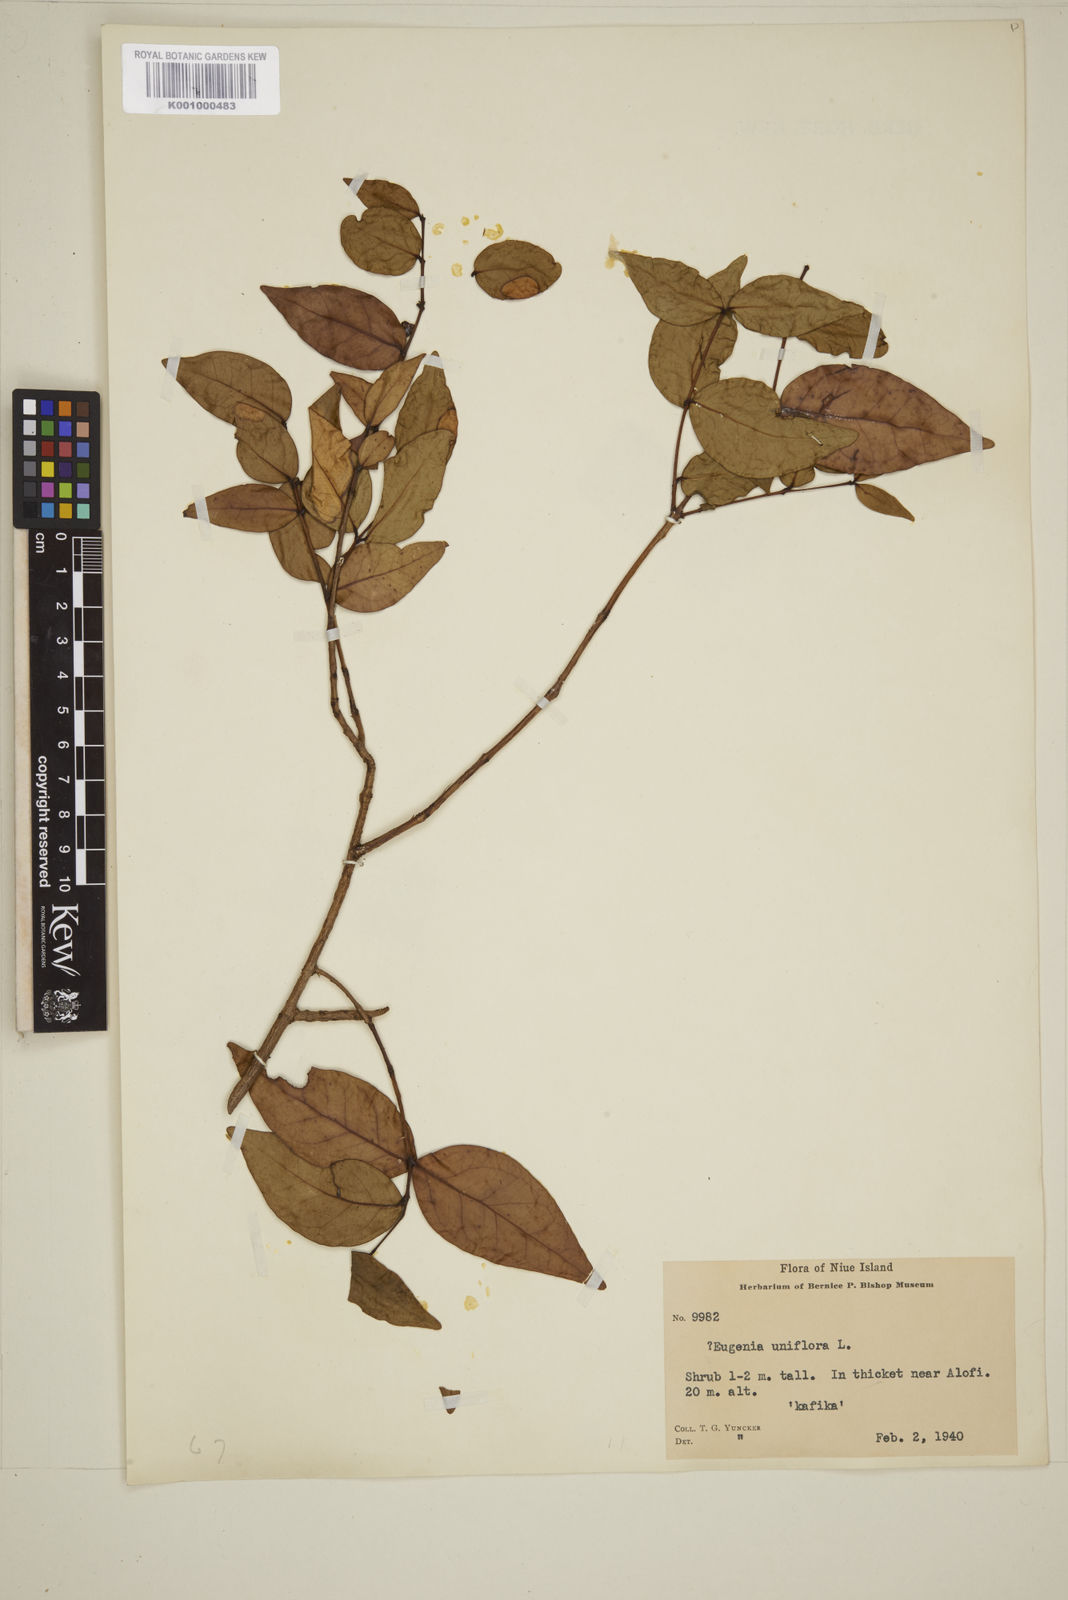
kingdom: Plantae
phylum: Tracheophyta
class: Magnoliopsida
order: Myrtales
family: Myrtaceae
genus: Eugenia
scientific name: Eugenia uniflora
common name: Surinam cherry
